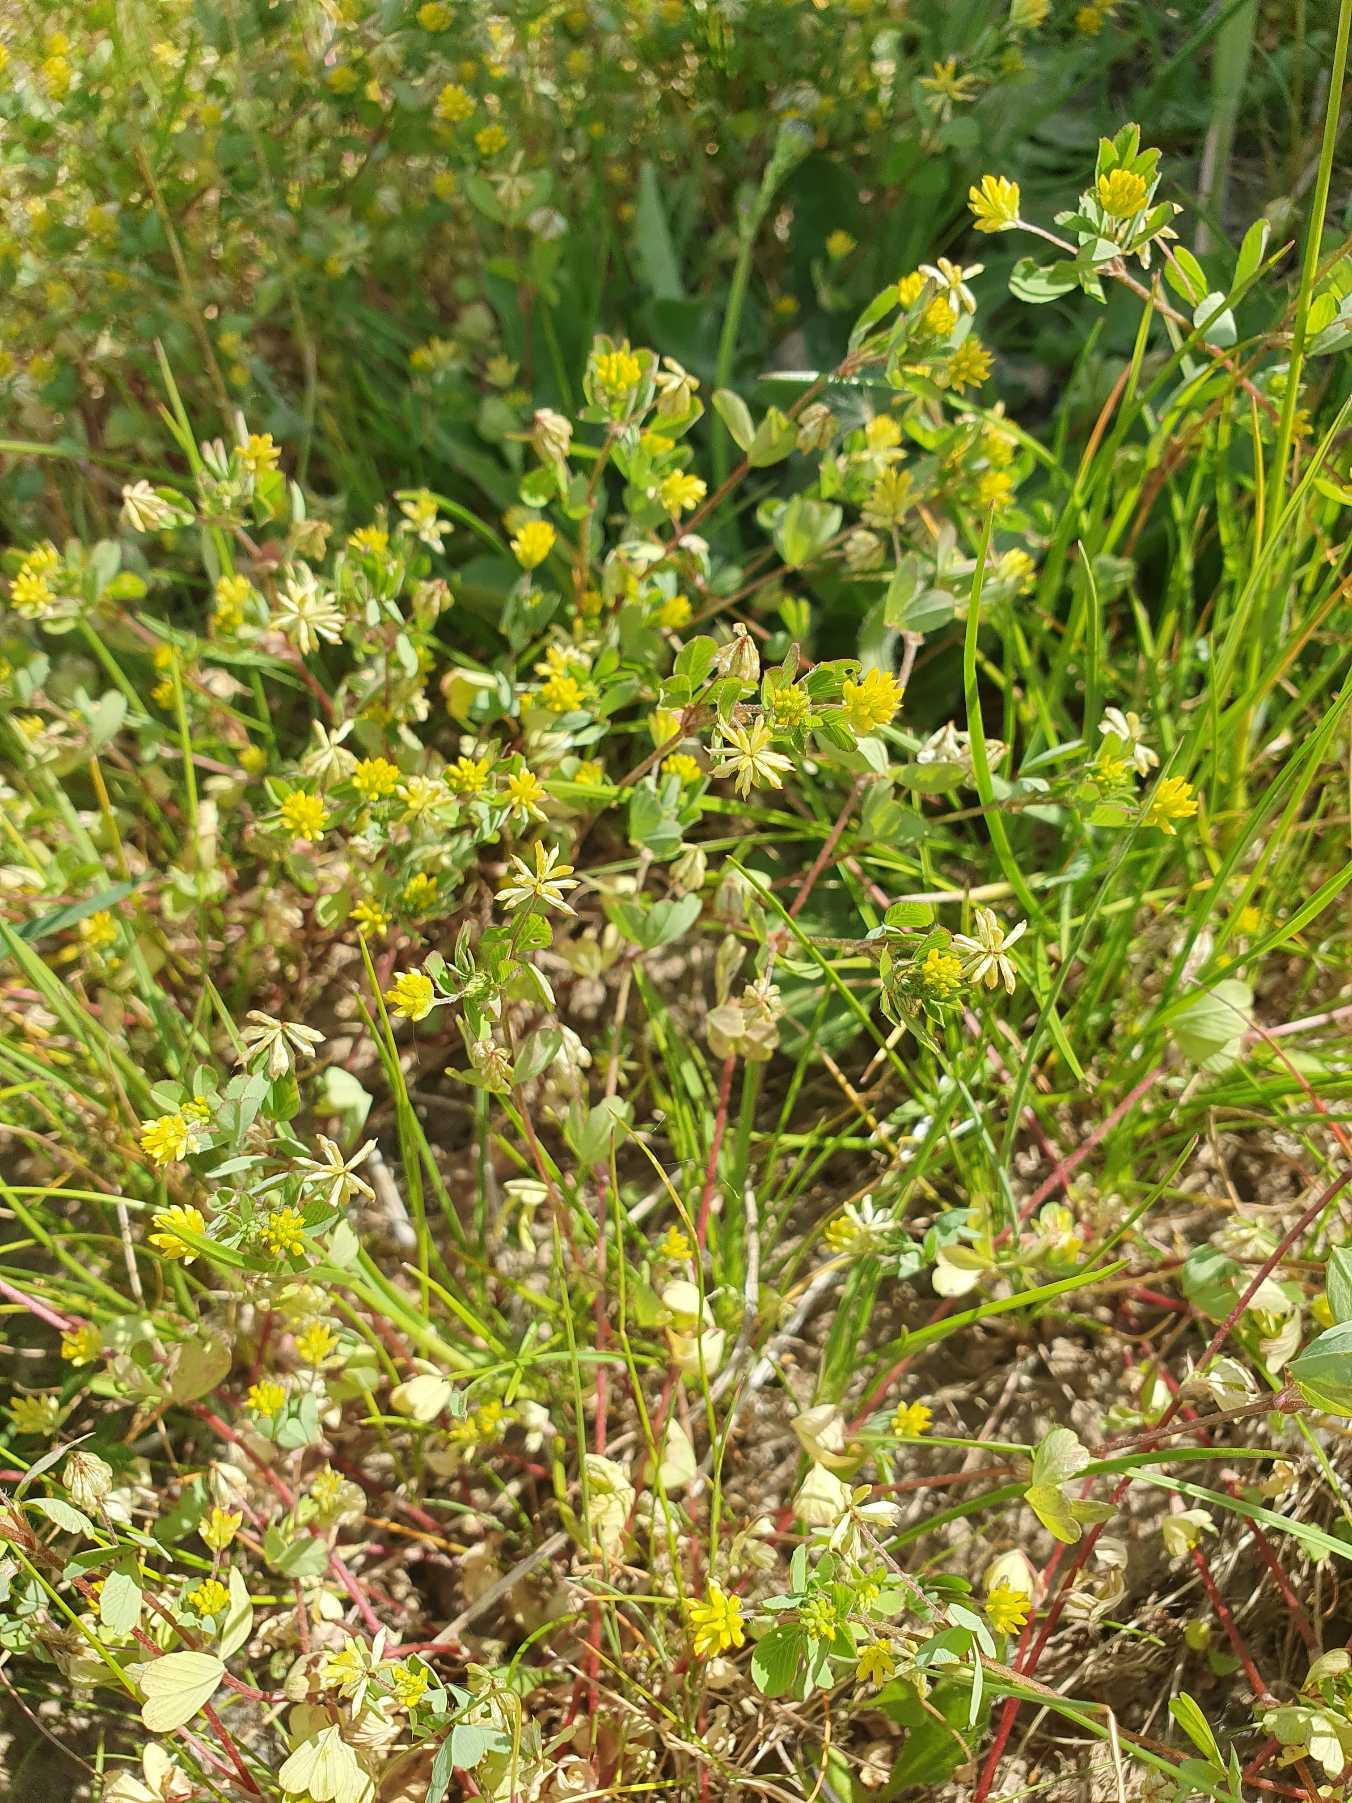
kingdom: Plantae
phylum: Tracheophyta
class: Magnoliopsida
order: Fabales
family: Fabaceae
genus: Trifolium
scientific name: Trifolium dubium
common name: Fin kløver
